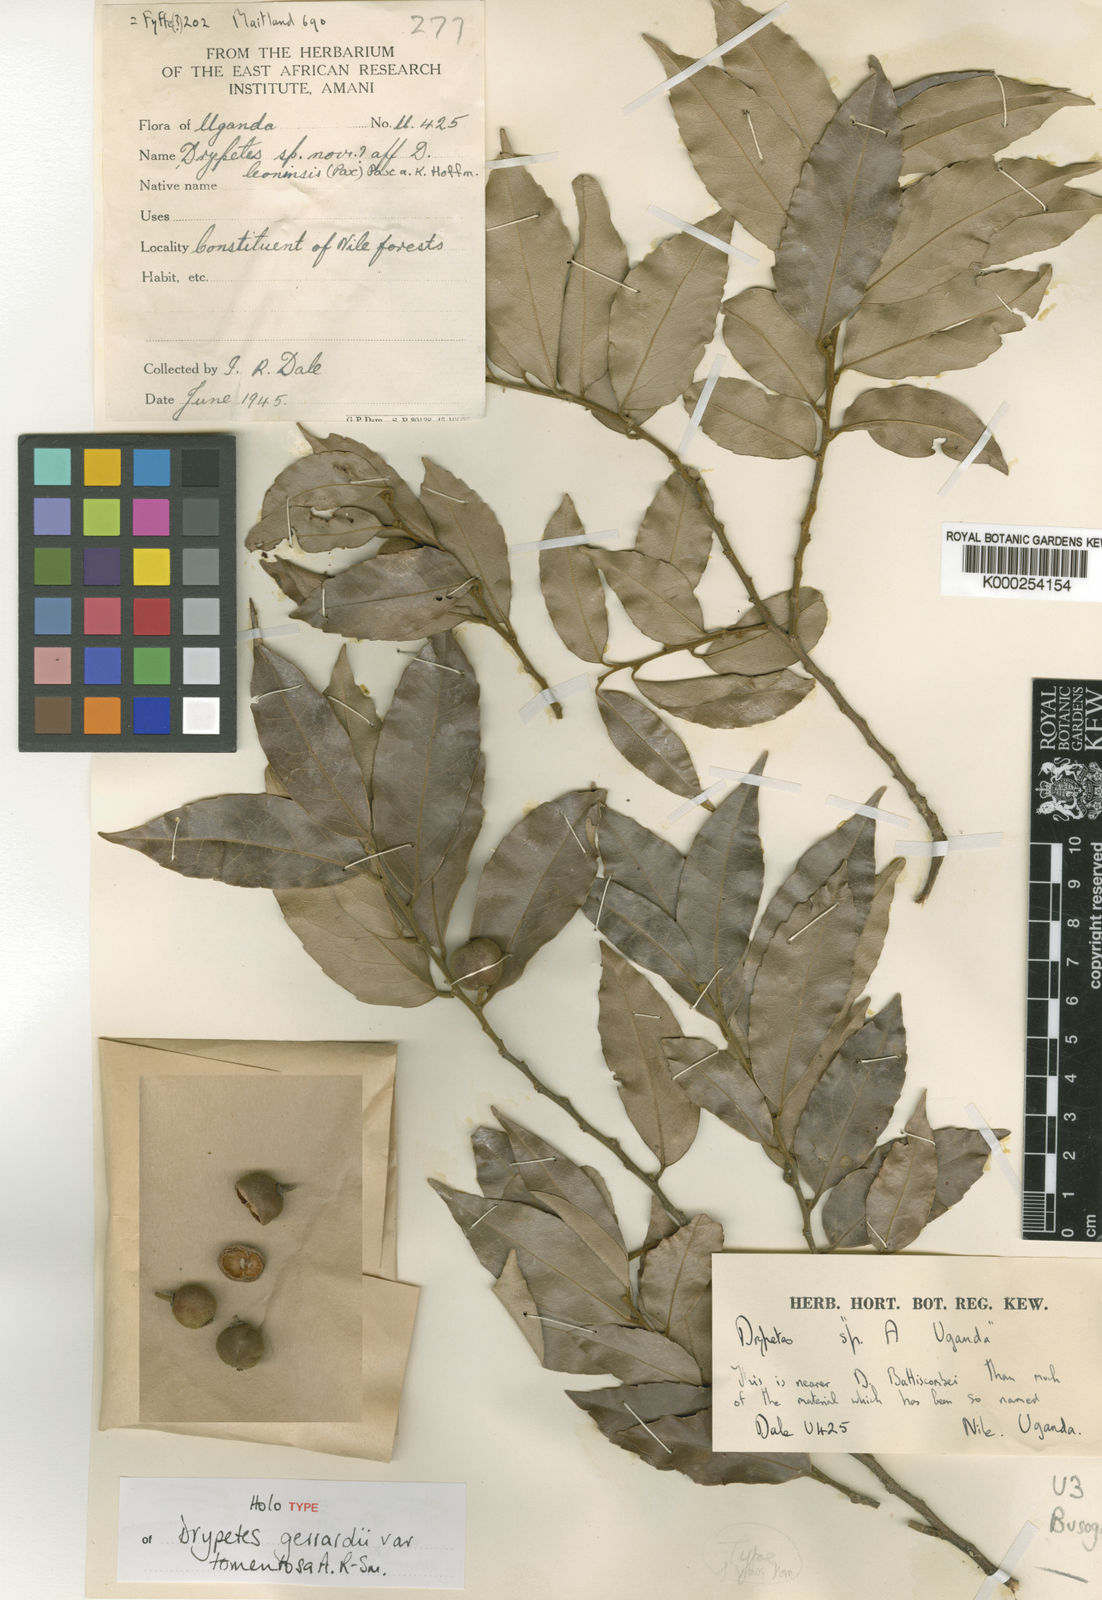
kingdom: Plantae
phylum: Tracheophyta
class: Magnoliopsida
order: Malpighiales
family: Putranjivaceae
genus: Drypetes
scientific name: Drypetes gerrardii
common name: Forest ironplum
